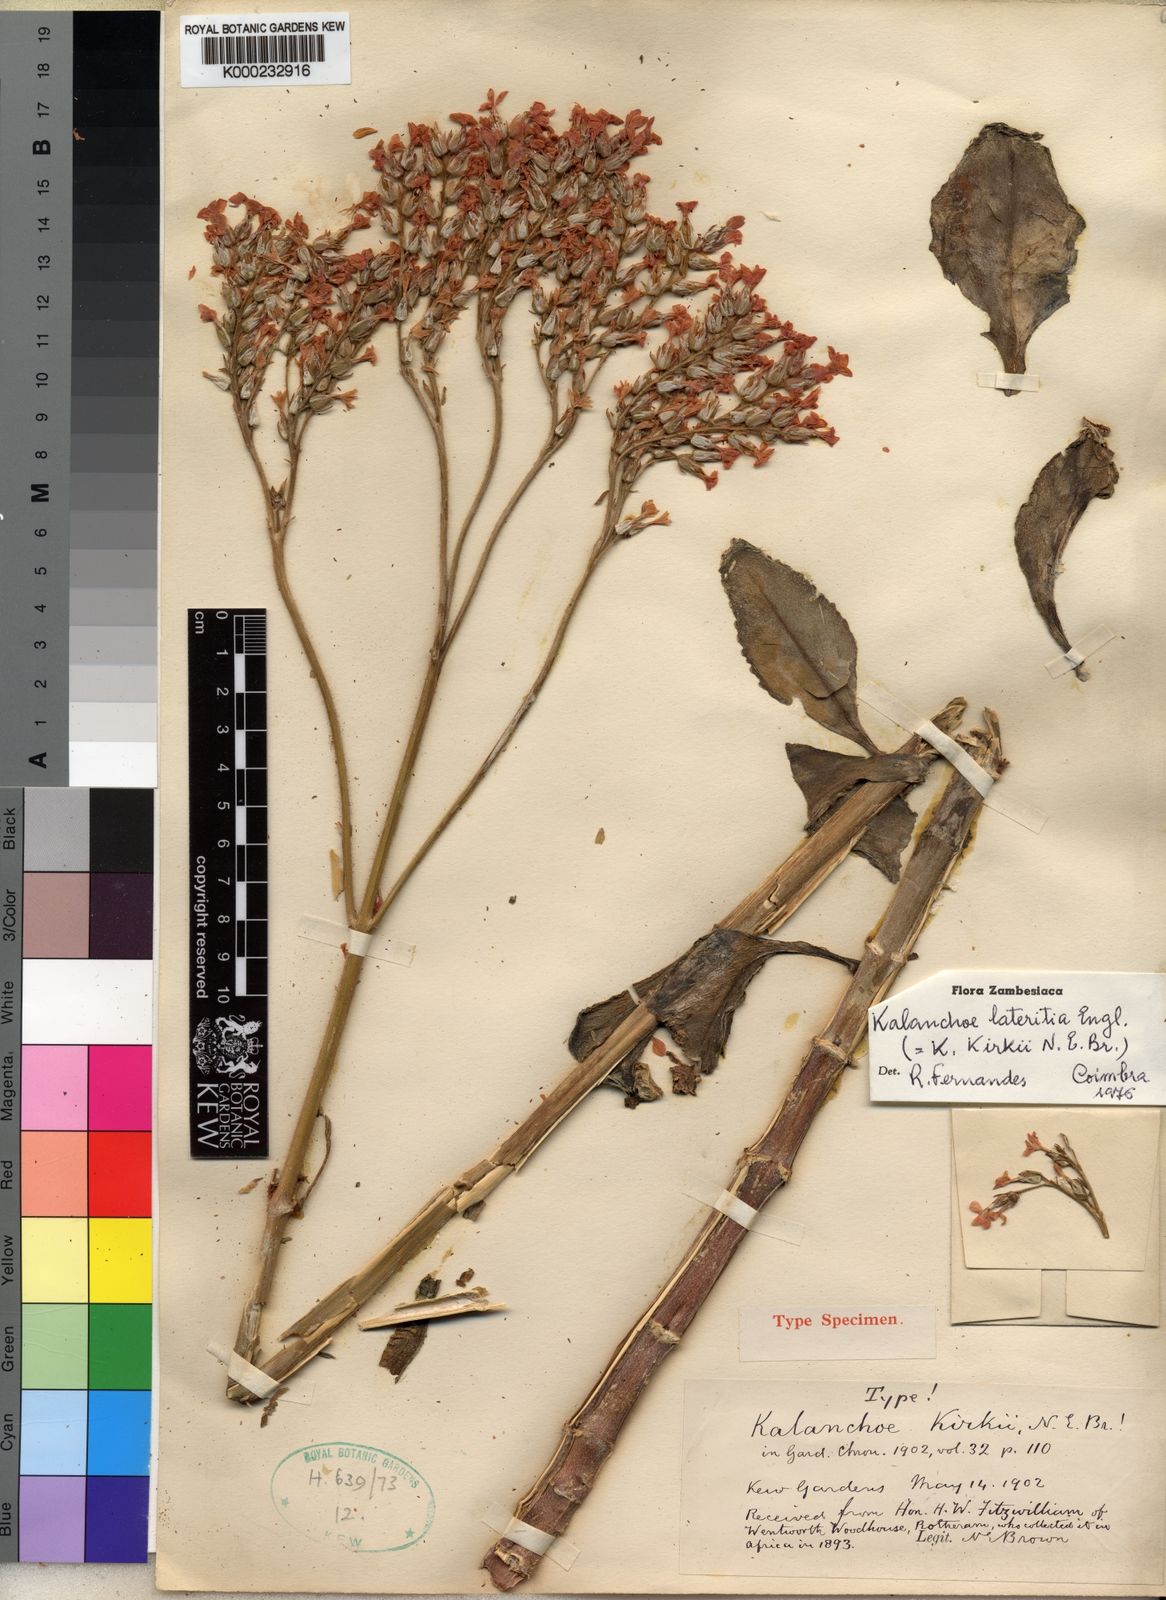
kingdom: Plantae
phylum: Tracheophyta
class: Magnoliopsida
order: Saxifragales
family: Crassulaceae
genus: Kalanchoe
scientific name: Kalanchoe lateritia
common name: Kalanchoe
